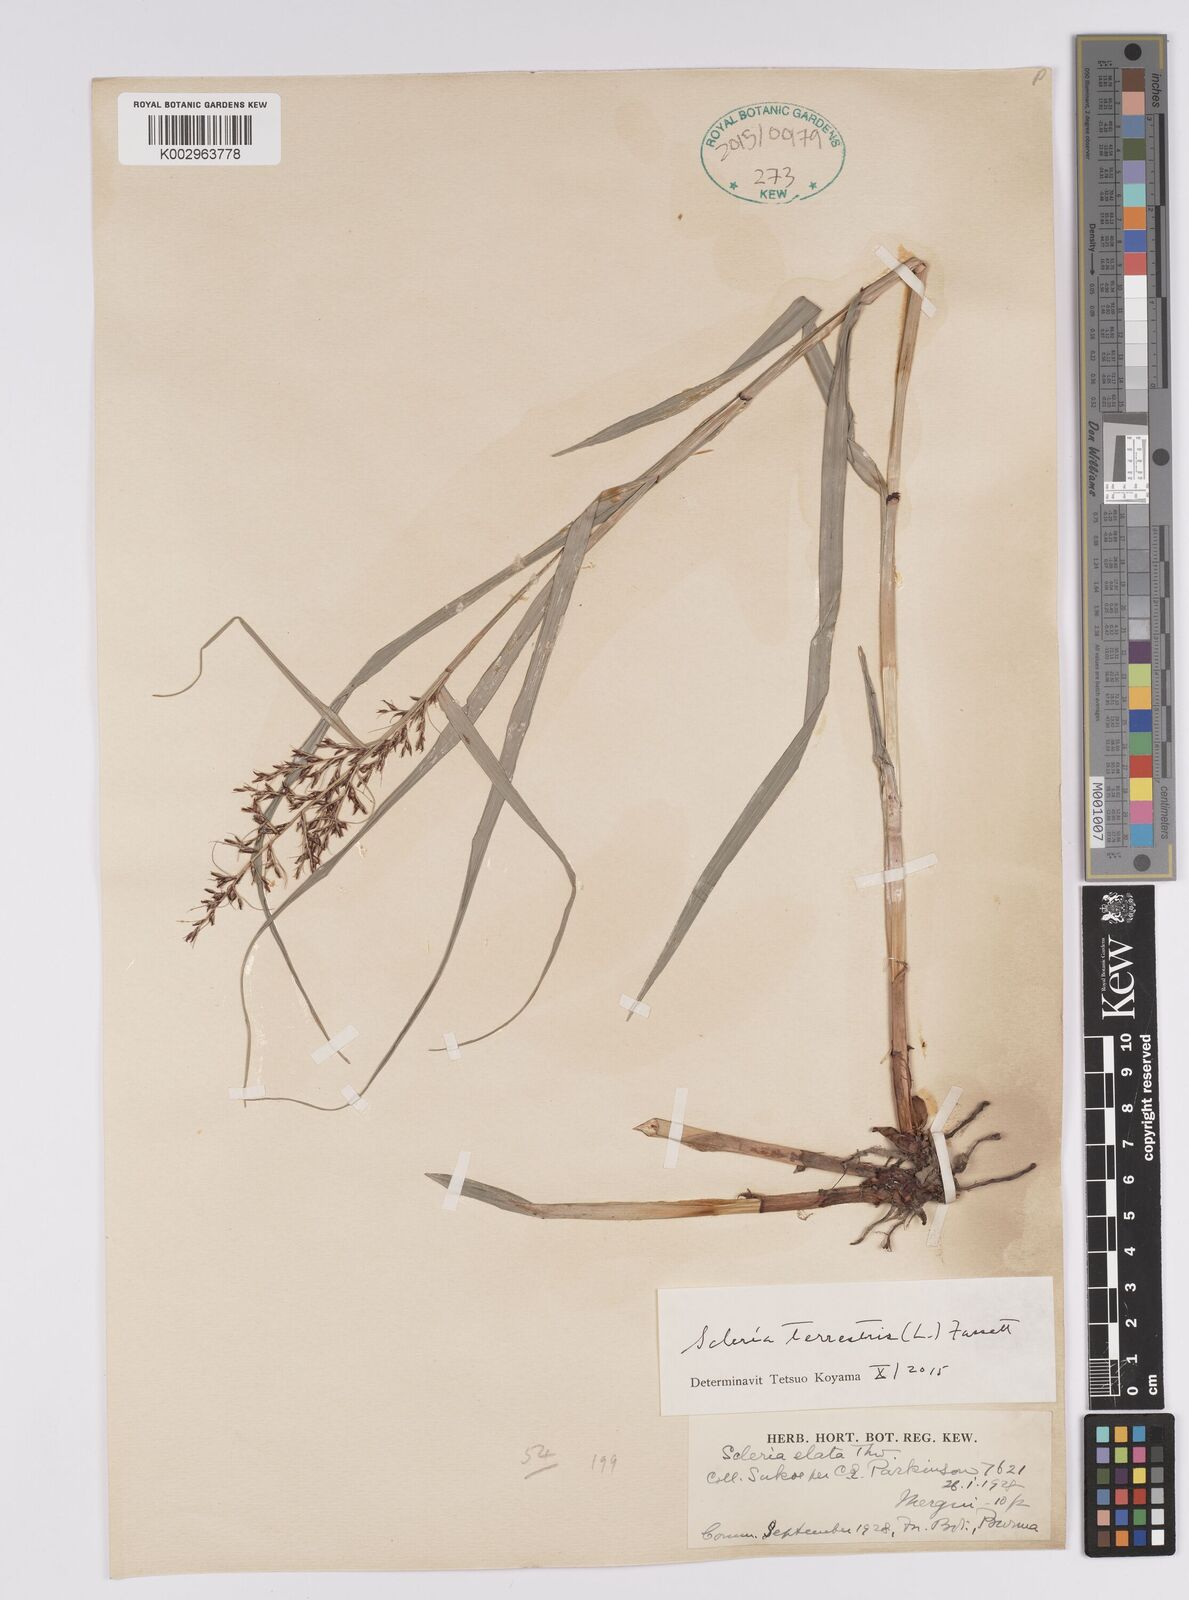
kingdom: Plantae
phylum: Tracheophyta
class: Liliopsida
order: Poales
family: Cyperaceae
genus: Scleria
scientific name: Scleria terrestris
